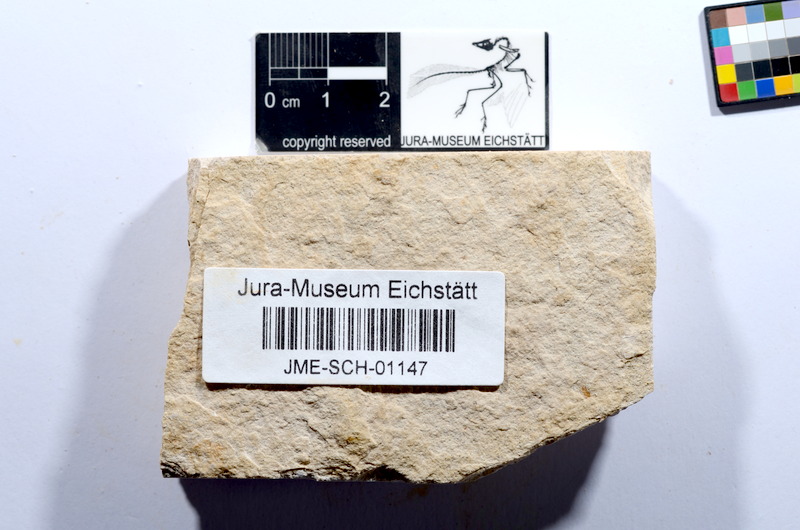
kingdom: Animalia
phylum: Chordata
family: Ascalaboidae
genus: Tharsis
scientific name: Tharsis dubius
